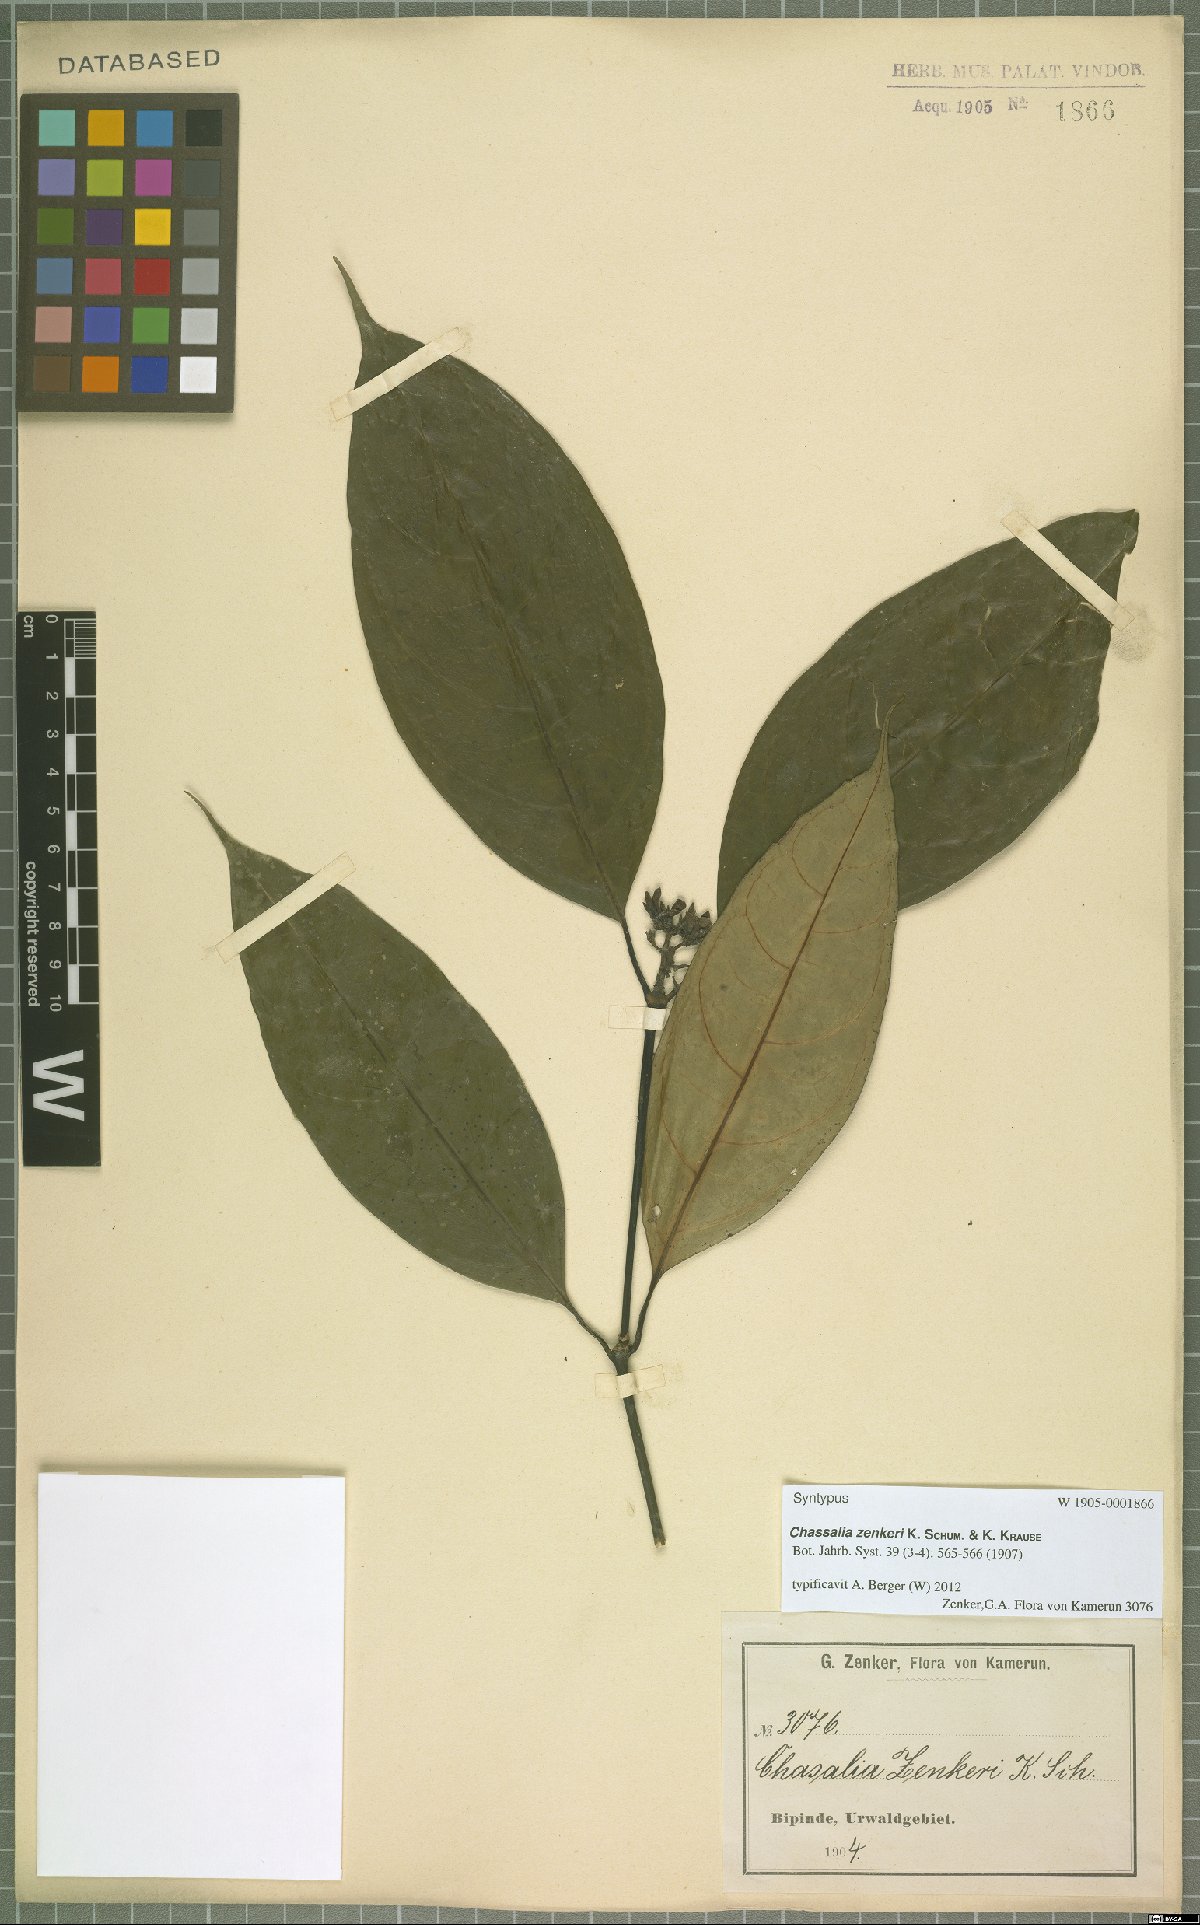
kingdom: Plantae
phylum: Tracheophyta
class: Magnoliopsida
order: Gentianales
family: Rubiaceae
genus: Chassalia
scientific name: Chassalia zenkeri
